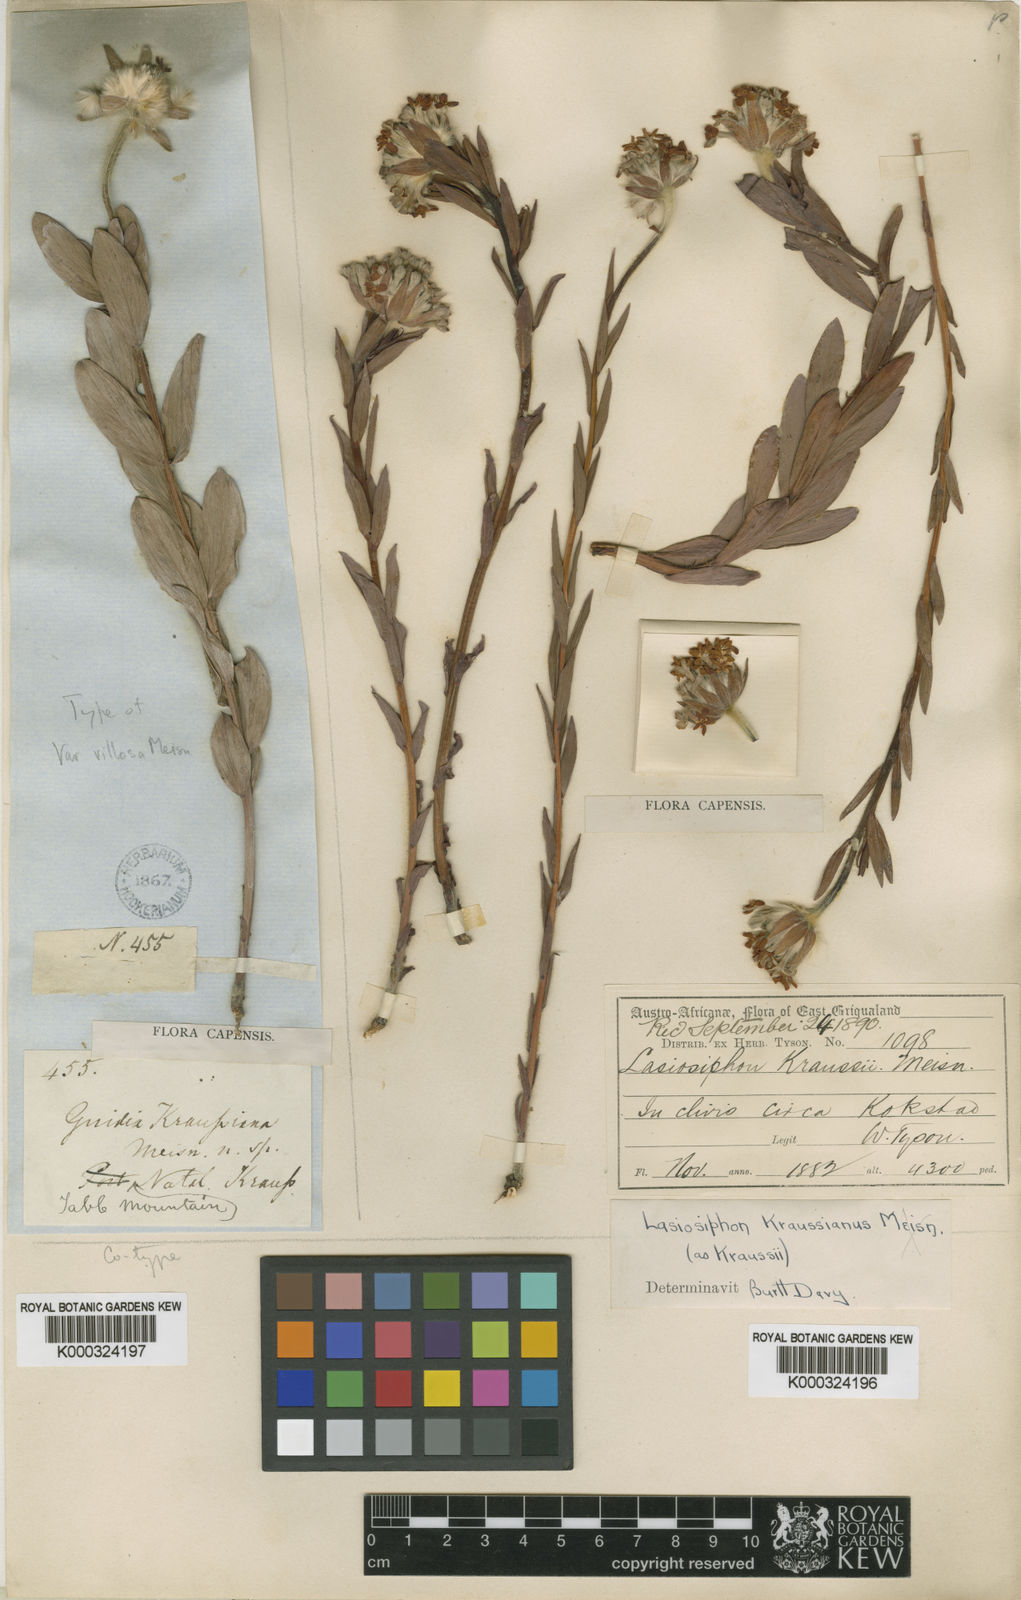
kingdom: Plantae
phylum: Tracheophyta
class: Magnoliopsida
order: Malvales
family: Thymelaeaceae
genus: Lasiosiphon
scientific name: Lasiosiphon
